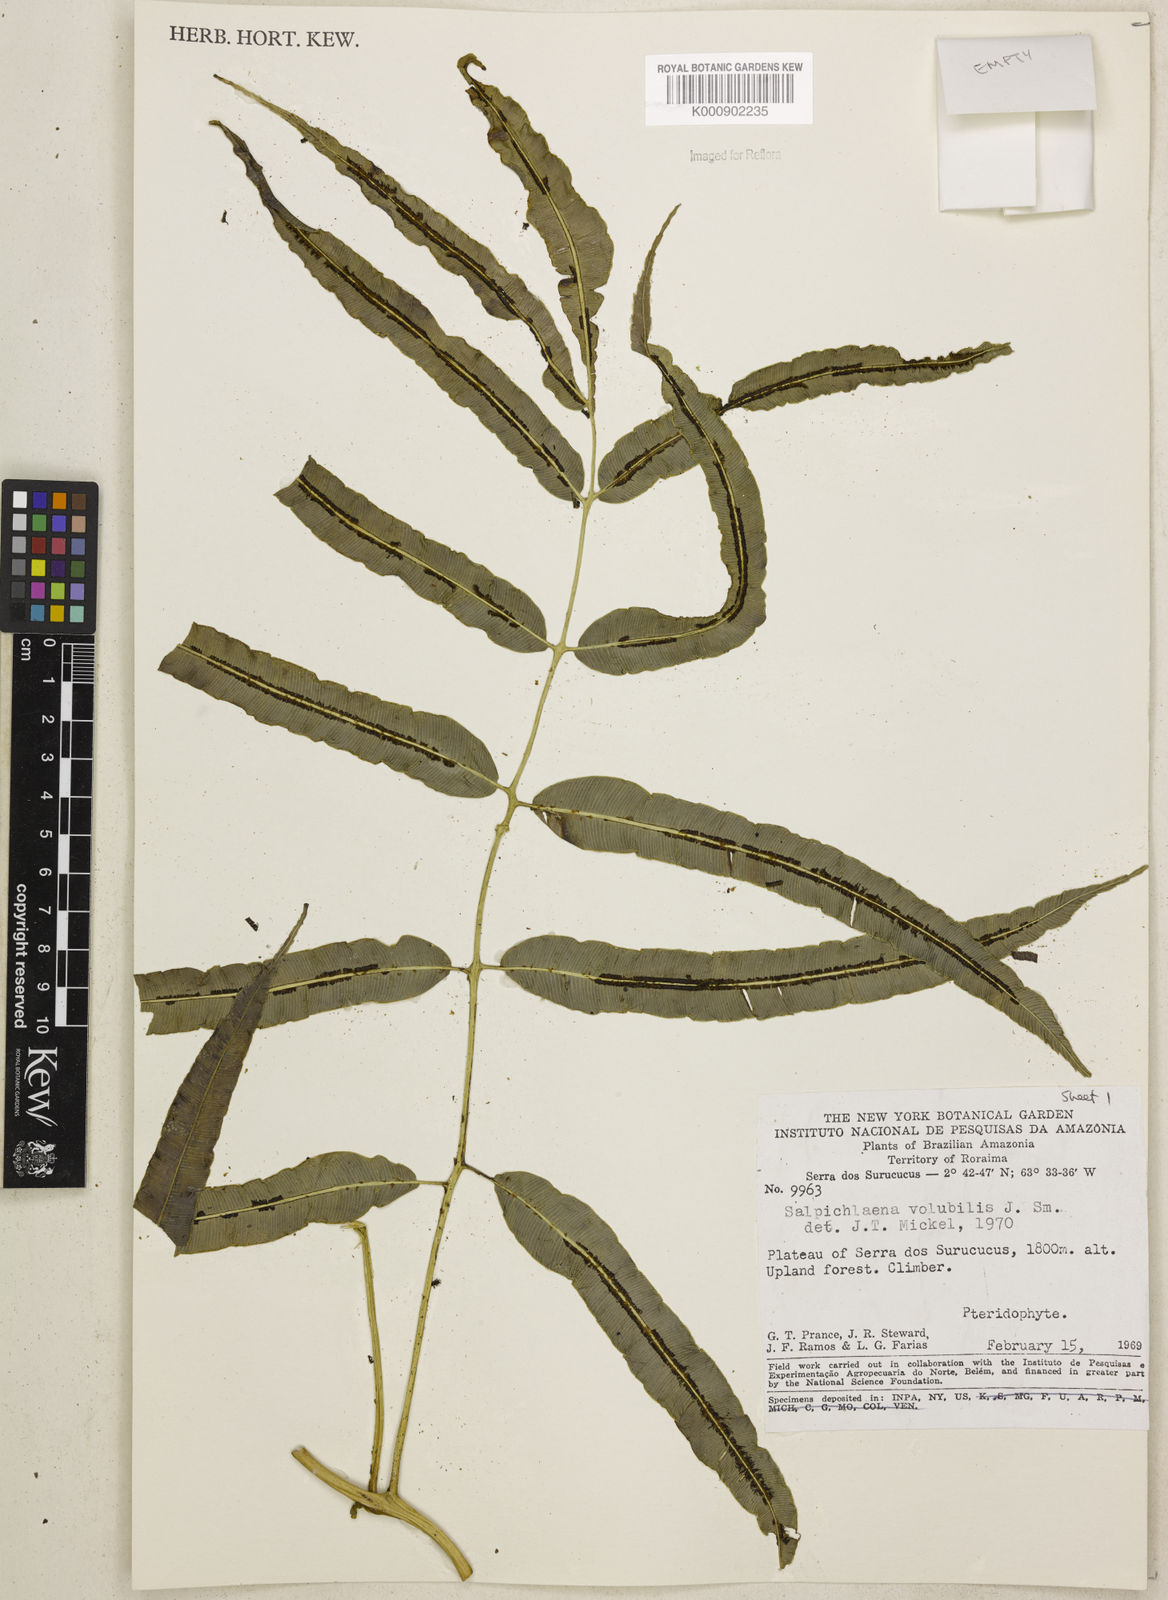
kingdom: Plantae
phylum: Tracheophyta
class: Polypodiopsida
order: Polypodiales
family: Blechnaceae
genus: Salpichlaena
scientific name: Salpichlaena volubilis
